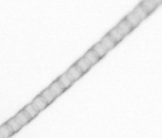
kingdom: Chromista
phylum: Ochrophyta
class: Bacillariophyceae
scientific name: Bacillariophyceae
